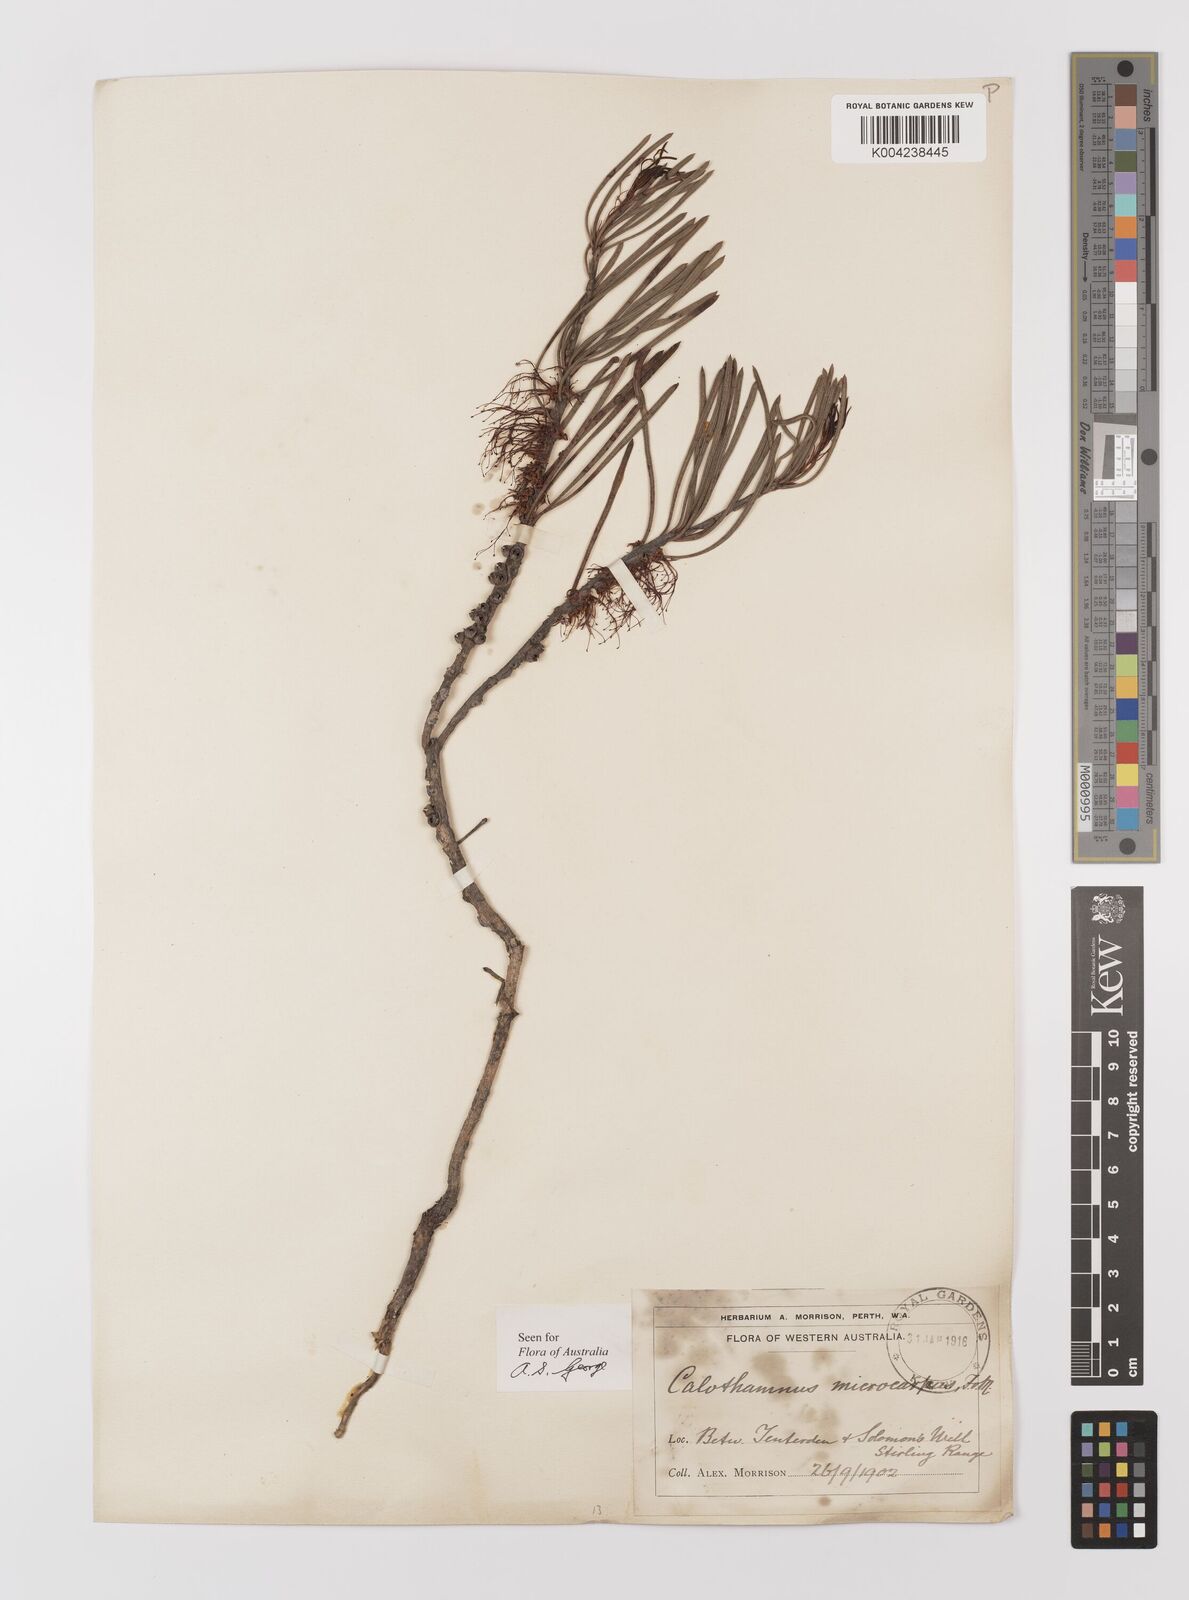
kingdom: Plantae
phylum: Tracheophyta
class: Magnoliopsida
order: Myrtales
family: Myrtaceae
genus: Melaleuca
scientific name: Melaleuca microcarpa
